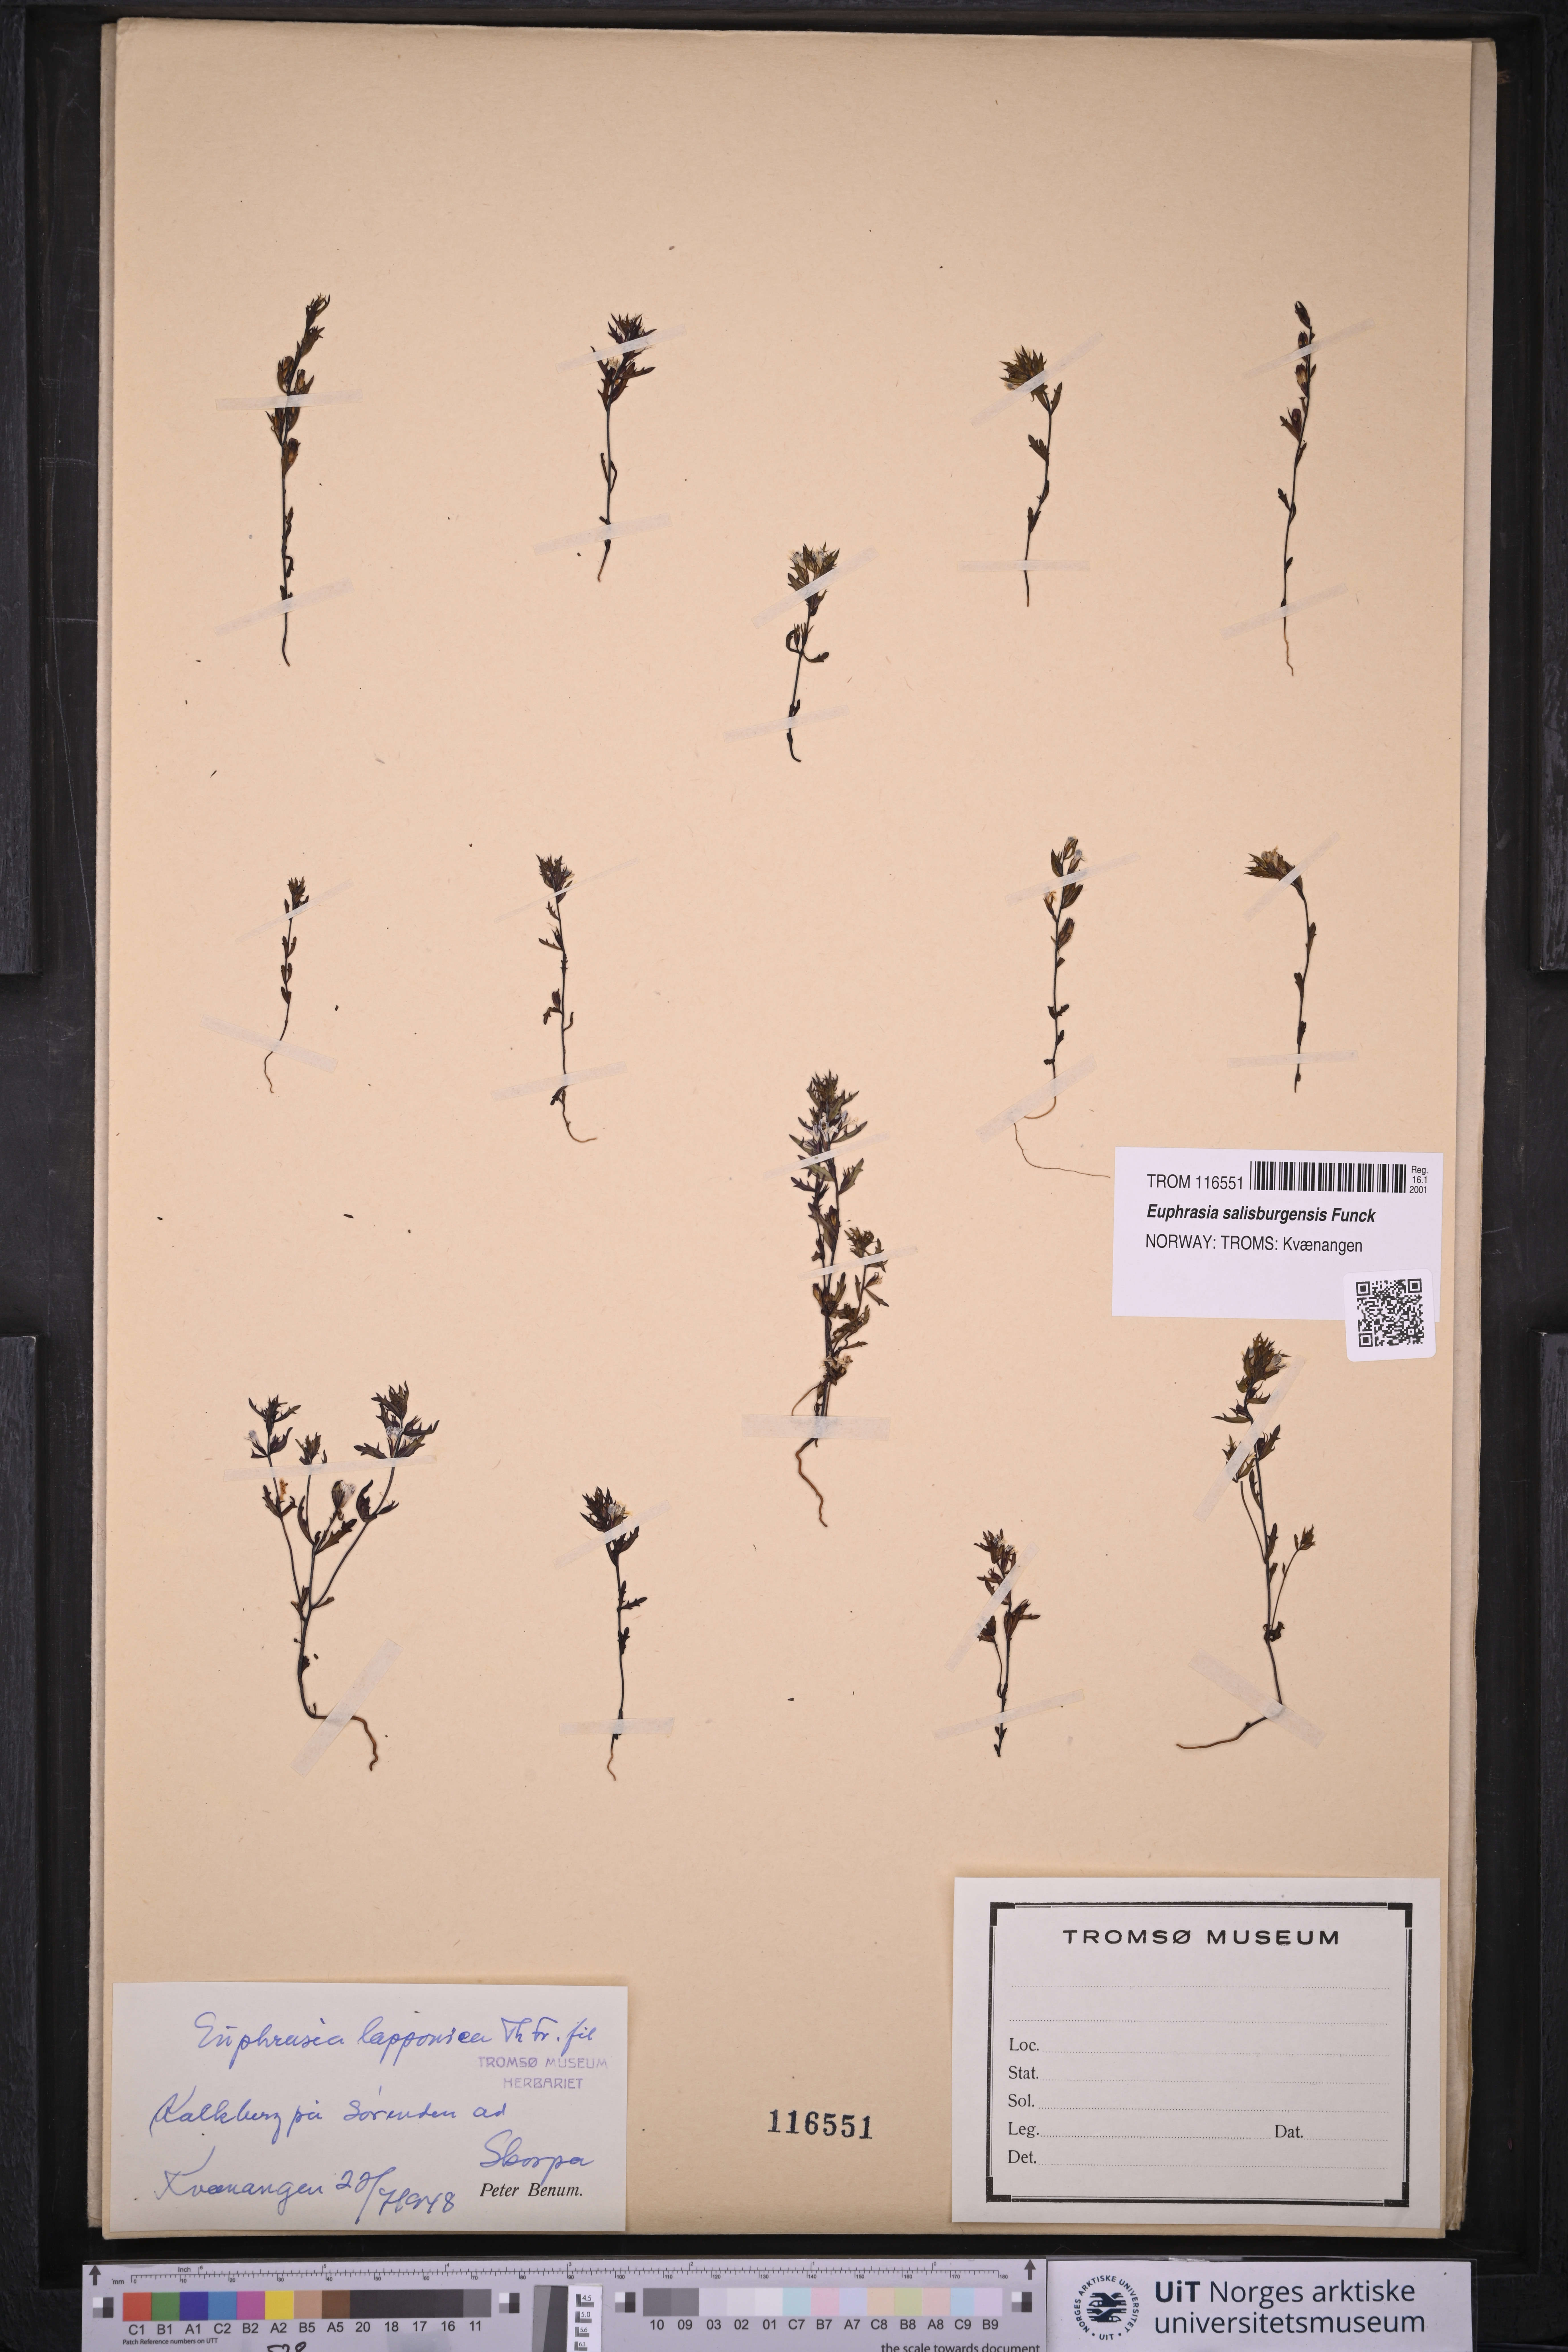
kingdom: Plantae
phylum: Tracheophyta
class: Magnoliopsida
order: Lamiales
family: Orobanchaceae
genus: Euphrasia
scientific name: Euphrasia salisburgensis
